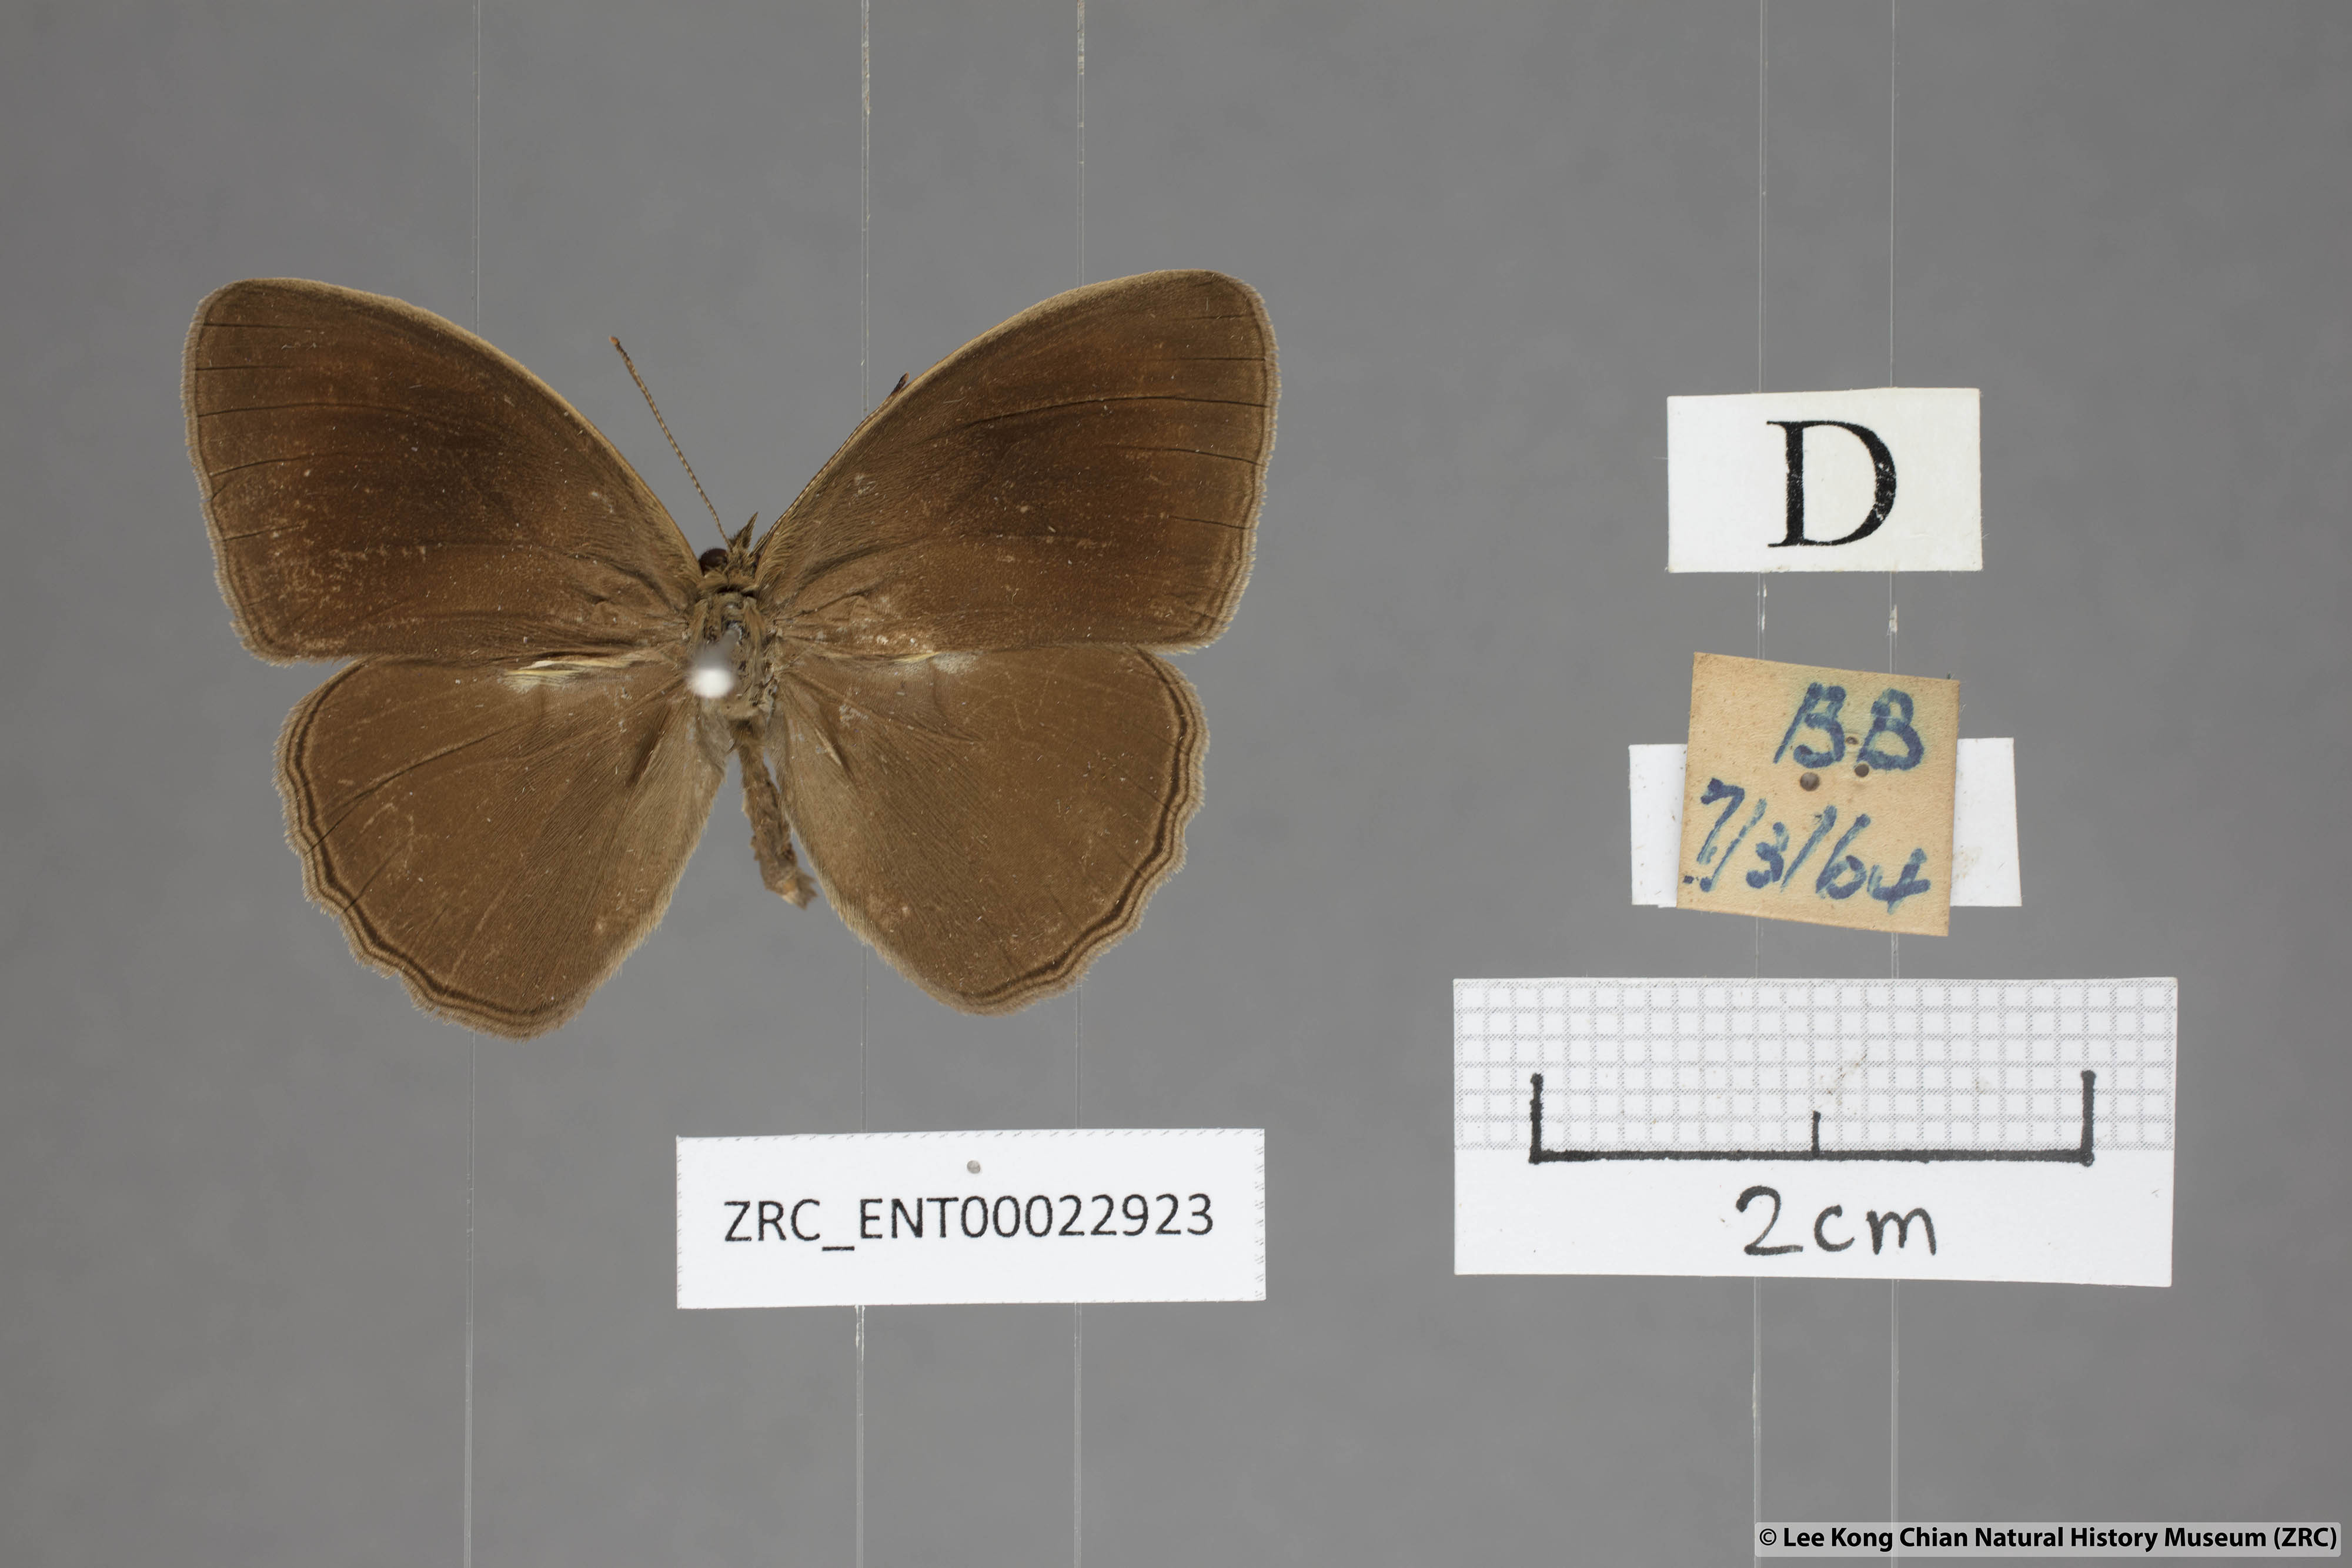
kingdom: Animalia
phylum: Arthropoda
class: Insecta
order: Lepidoptera
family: Nymphalidae
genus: Mycalesis
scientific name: Mycalesis janardana
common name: Common bush brown
